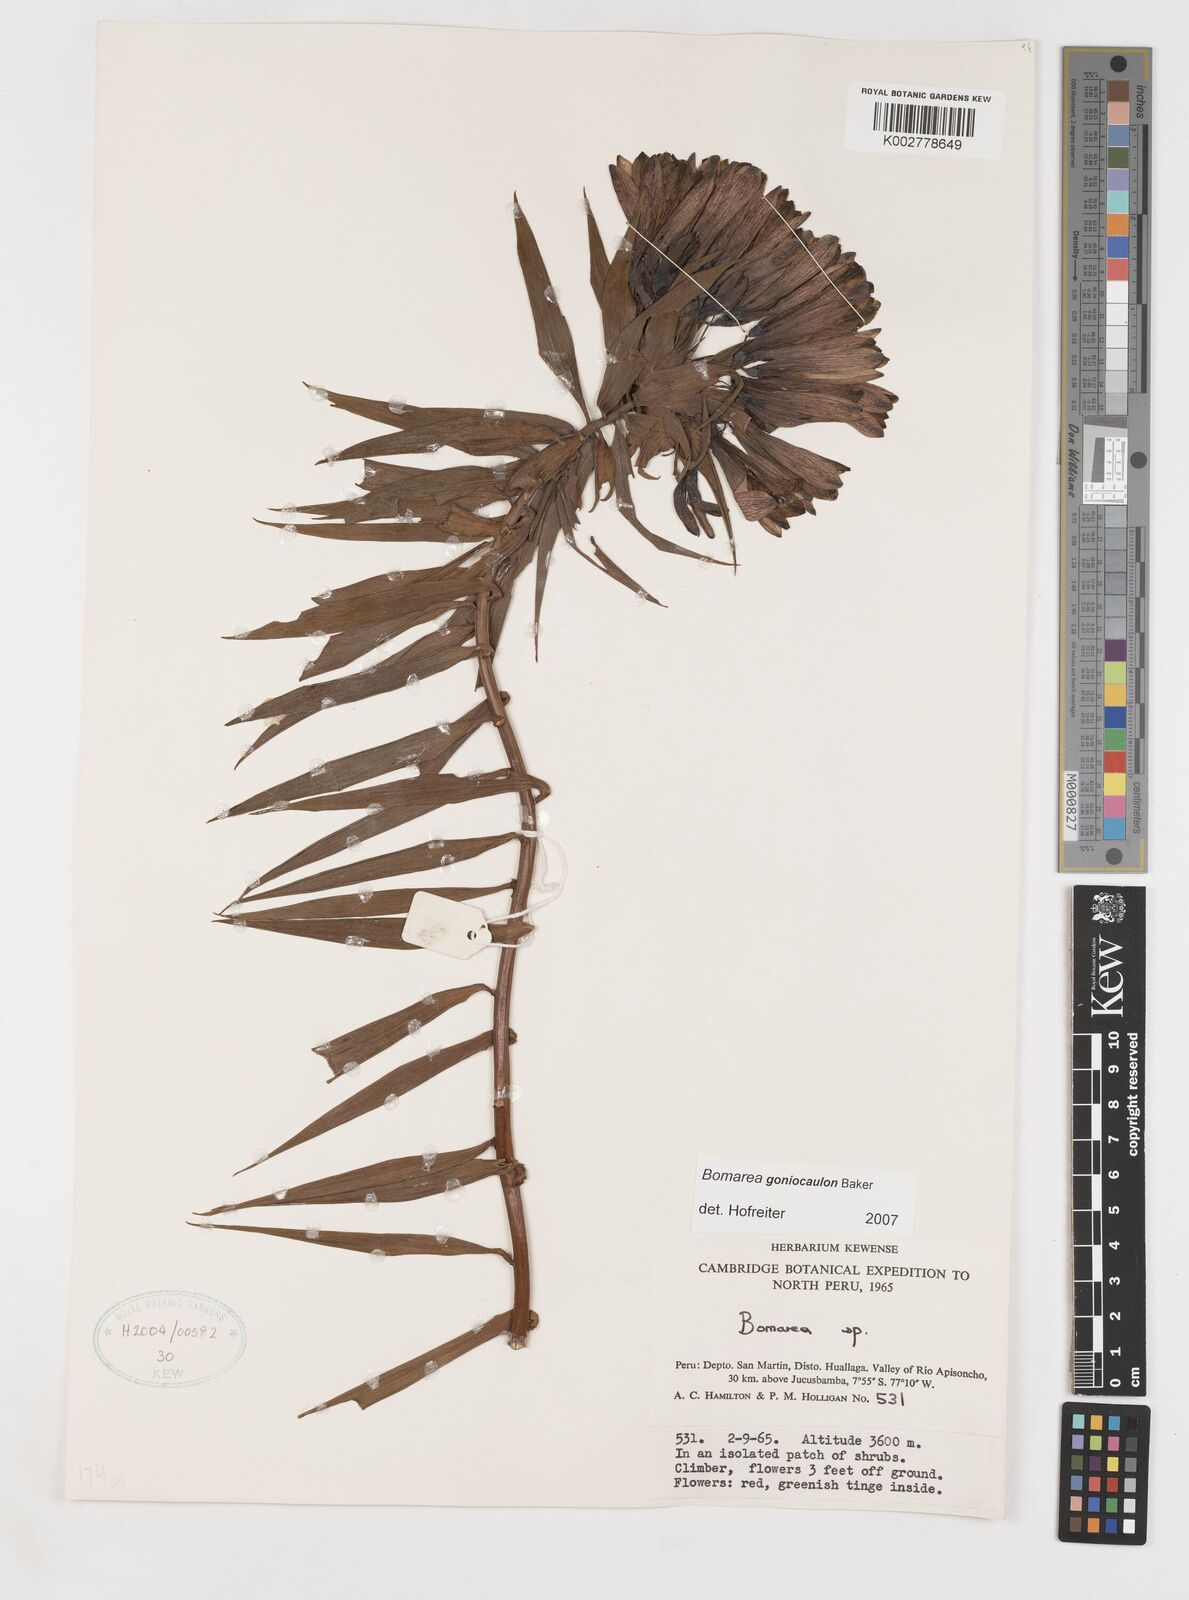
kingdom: Plantae
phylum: Tracheophyta
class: Liliopsida
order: Liliales
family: Alstroemeriaceae
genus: Bomarea
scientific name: Bomarea goniocaulon
